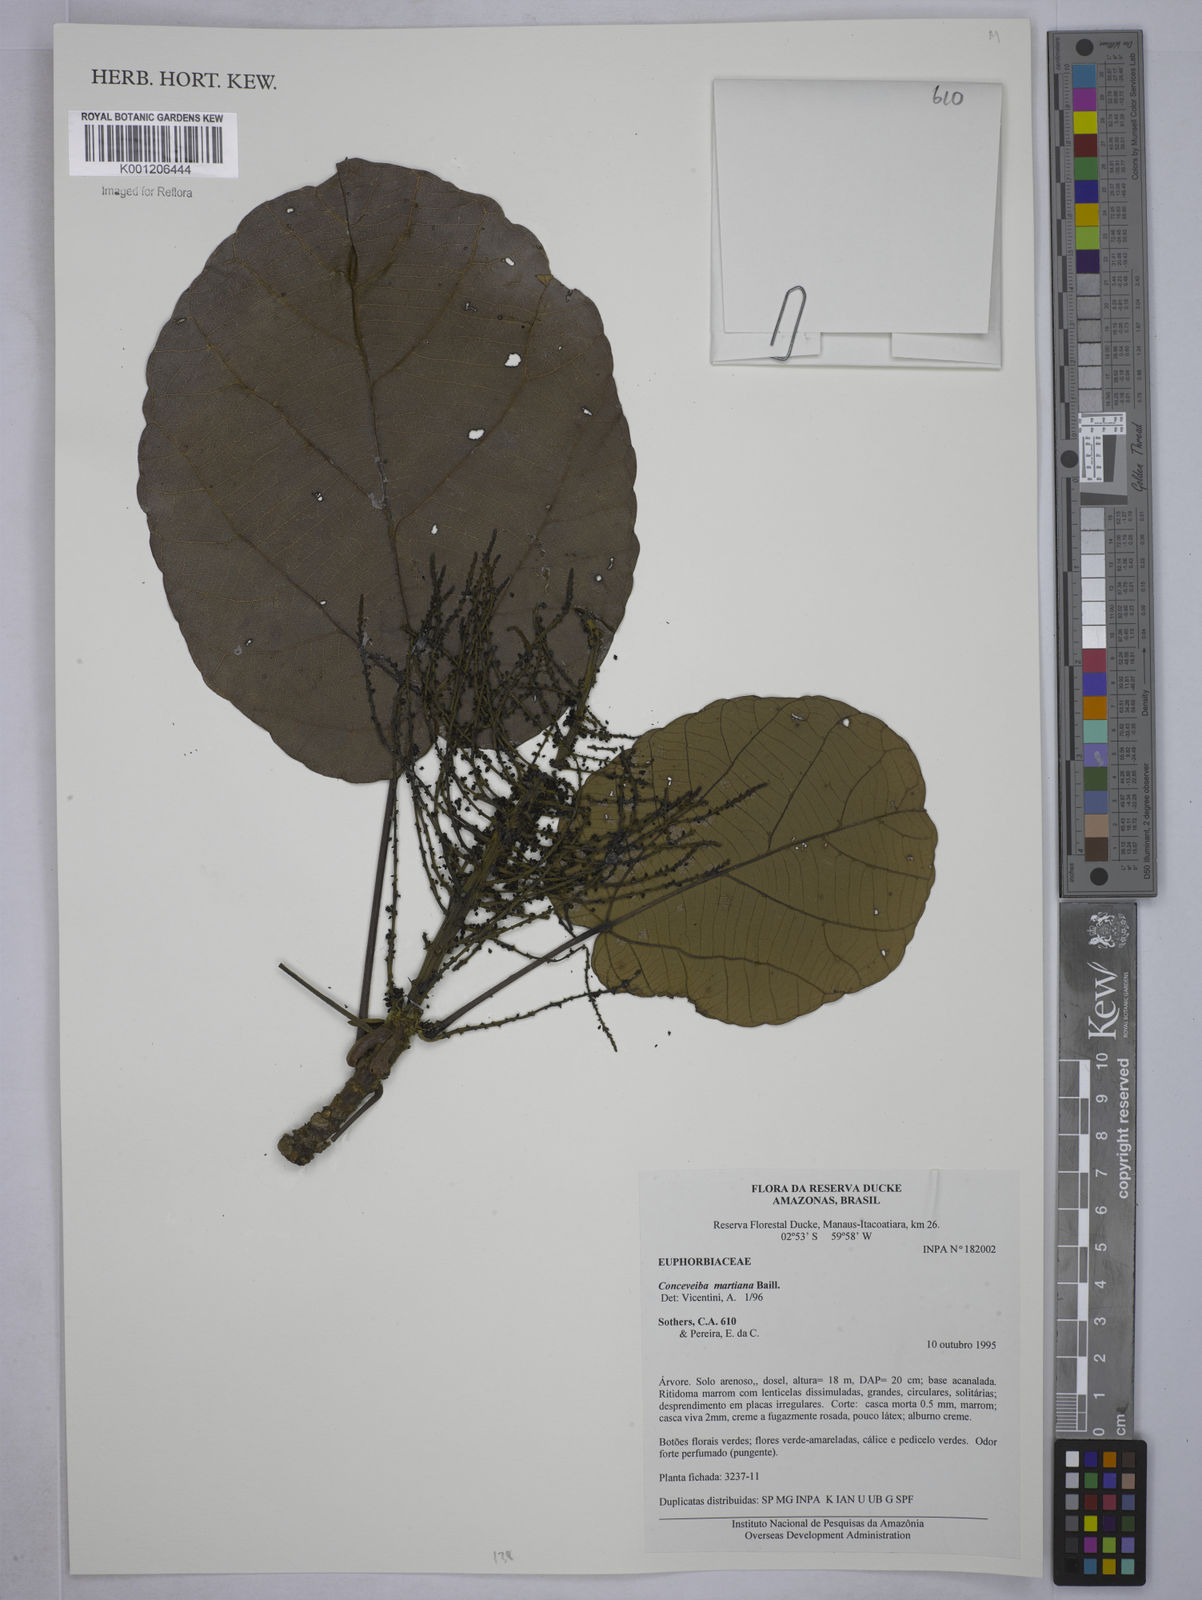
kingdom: Plantae
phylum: Tracheophyta
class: Magnoliopsida
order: Malpighiales
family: Euphorbiaceae
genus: Conceveiba
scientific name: Conceveiba martiana
